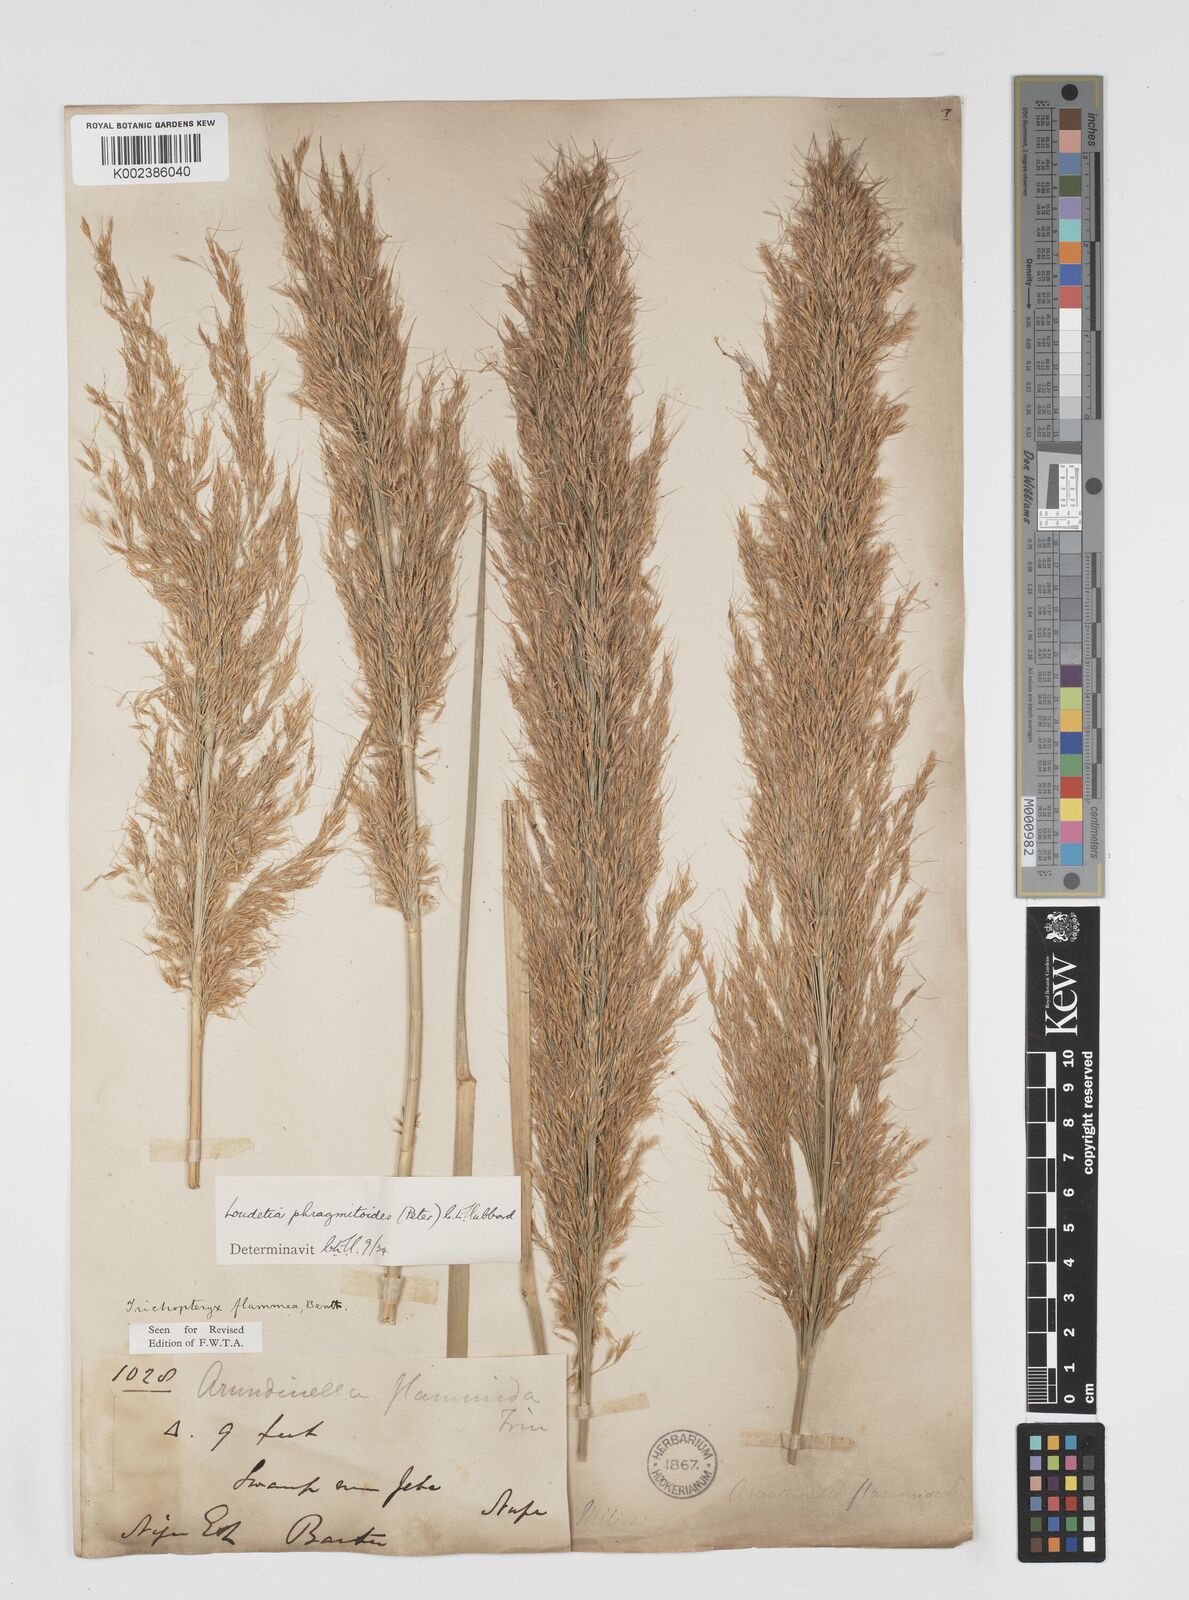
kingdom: Plantae
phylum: Tracheophyta
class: Liliopsida
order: Poales
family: Poaceae
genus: Loudetia
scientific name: Loudetia phragmitoides
